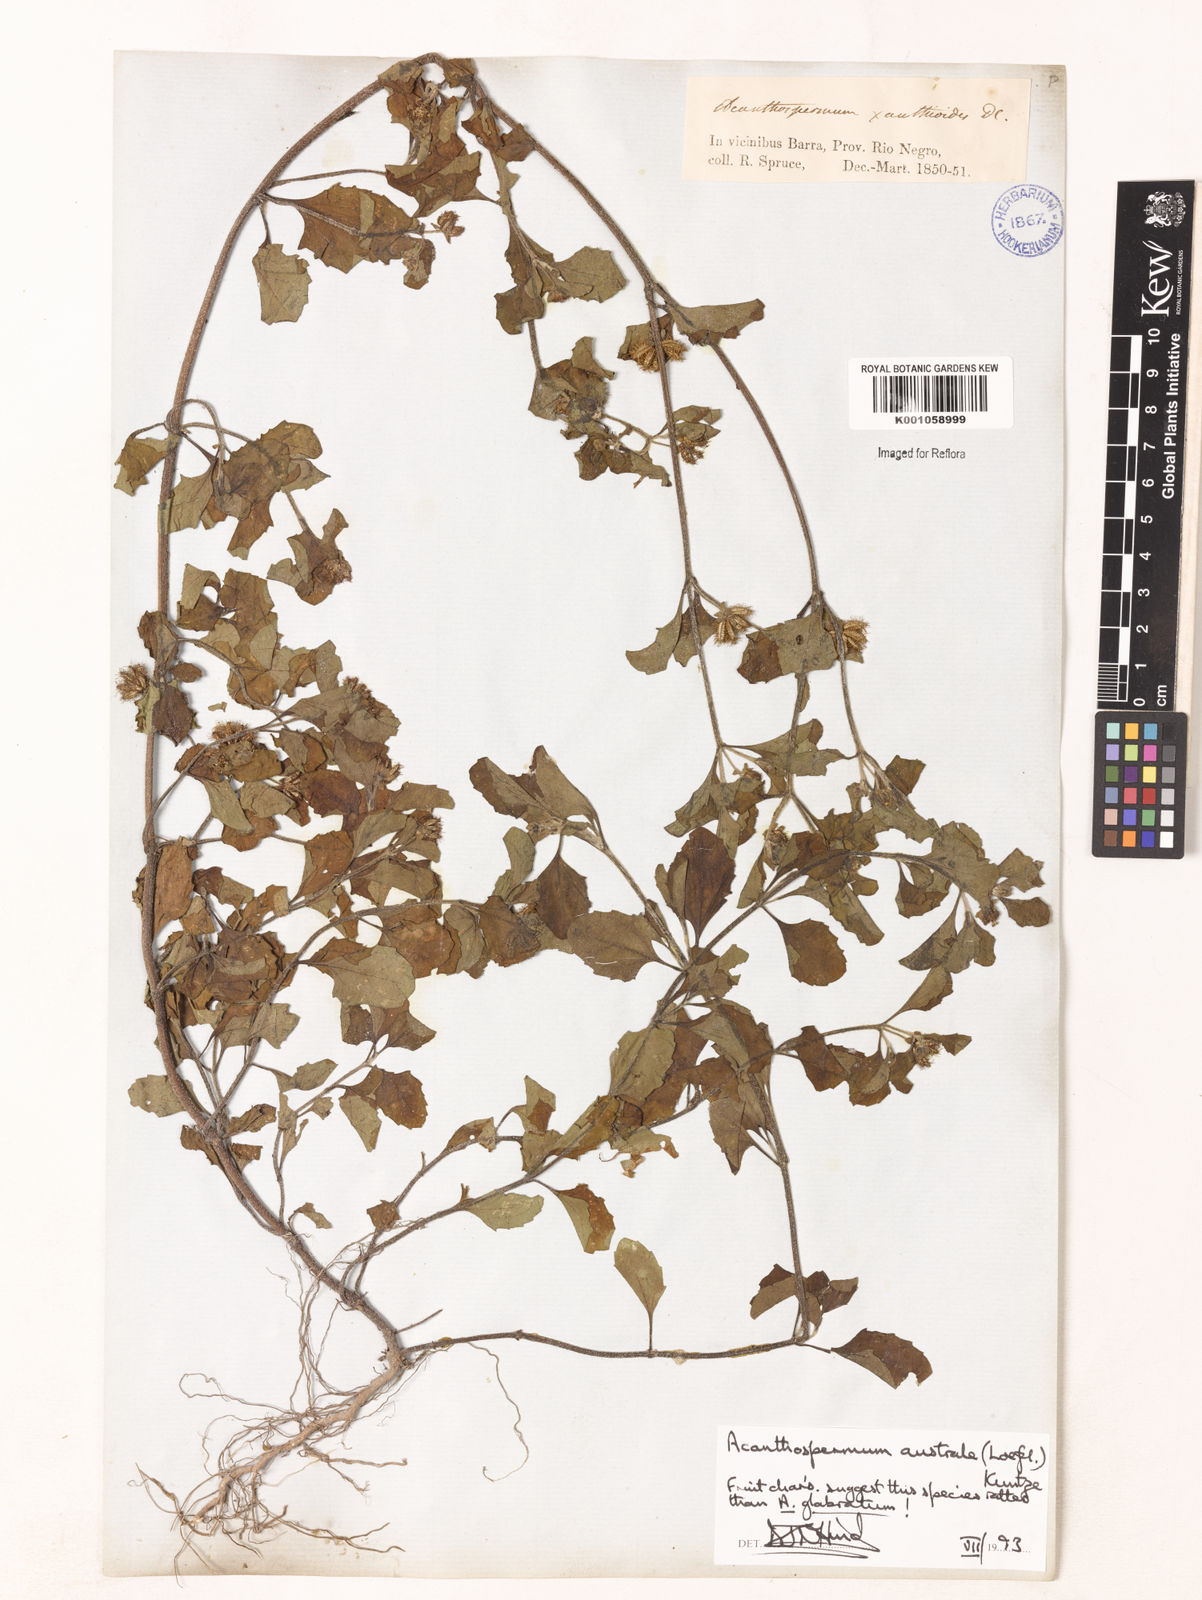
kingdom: Plantae
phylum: Tracheophyta
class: Magnoliopsida
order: Asterales
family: Asteraceae
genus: Acanthospermum
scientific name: Acanthospermum australe
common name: Paraguayan starbur
